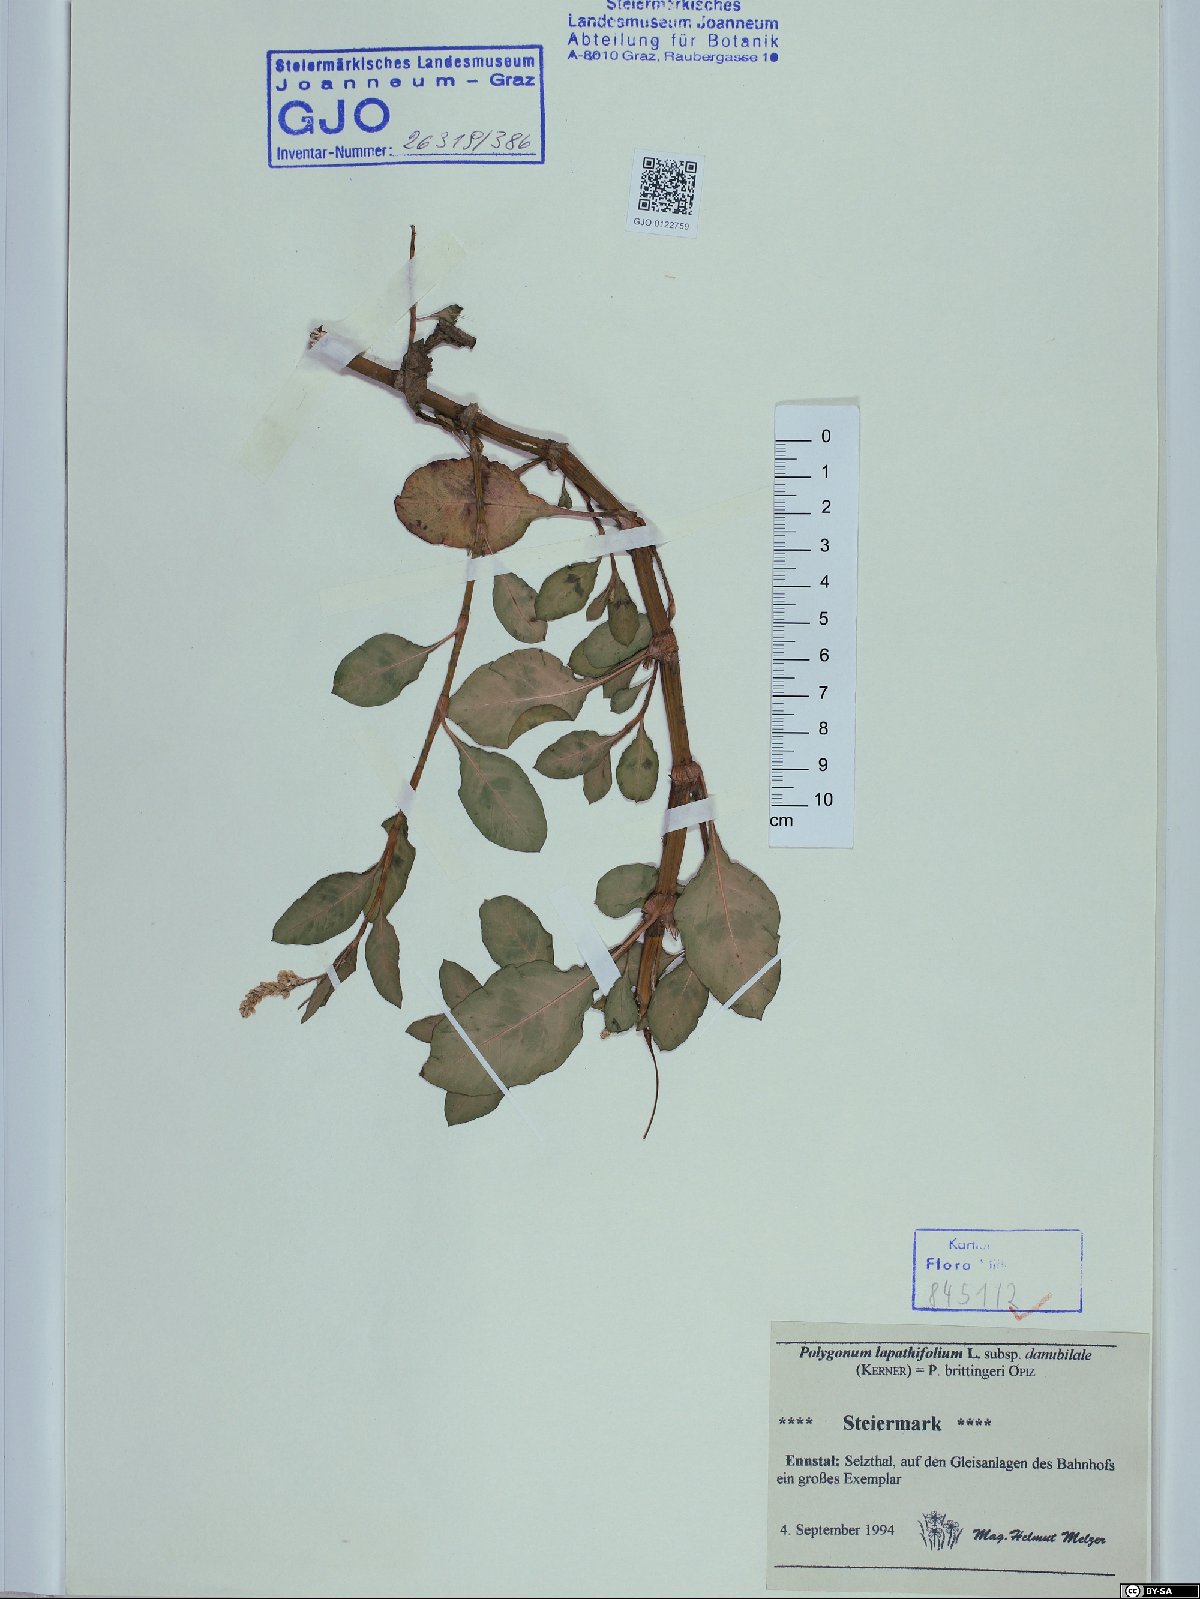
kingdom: Plantae
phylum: Tracheophyta
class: Magnoliopsida
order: Caryophyllales
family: Polygonaceae
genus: Persicaria
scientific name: Persicaria lapathifolia
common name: Curlytop knotweed
